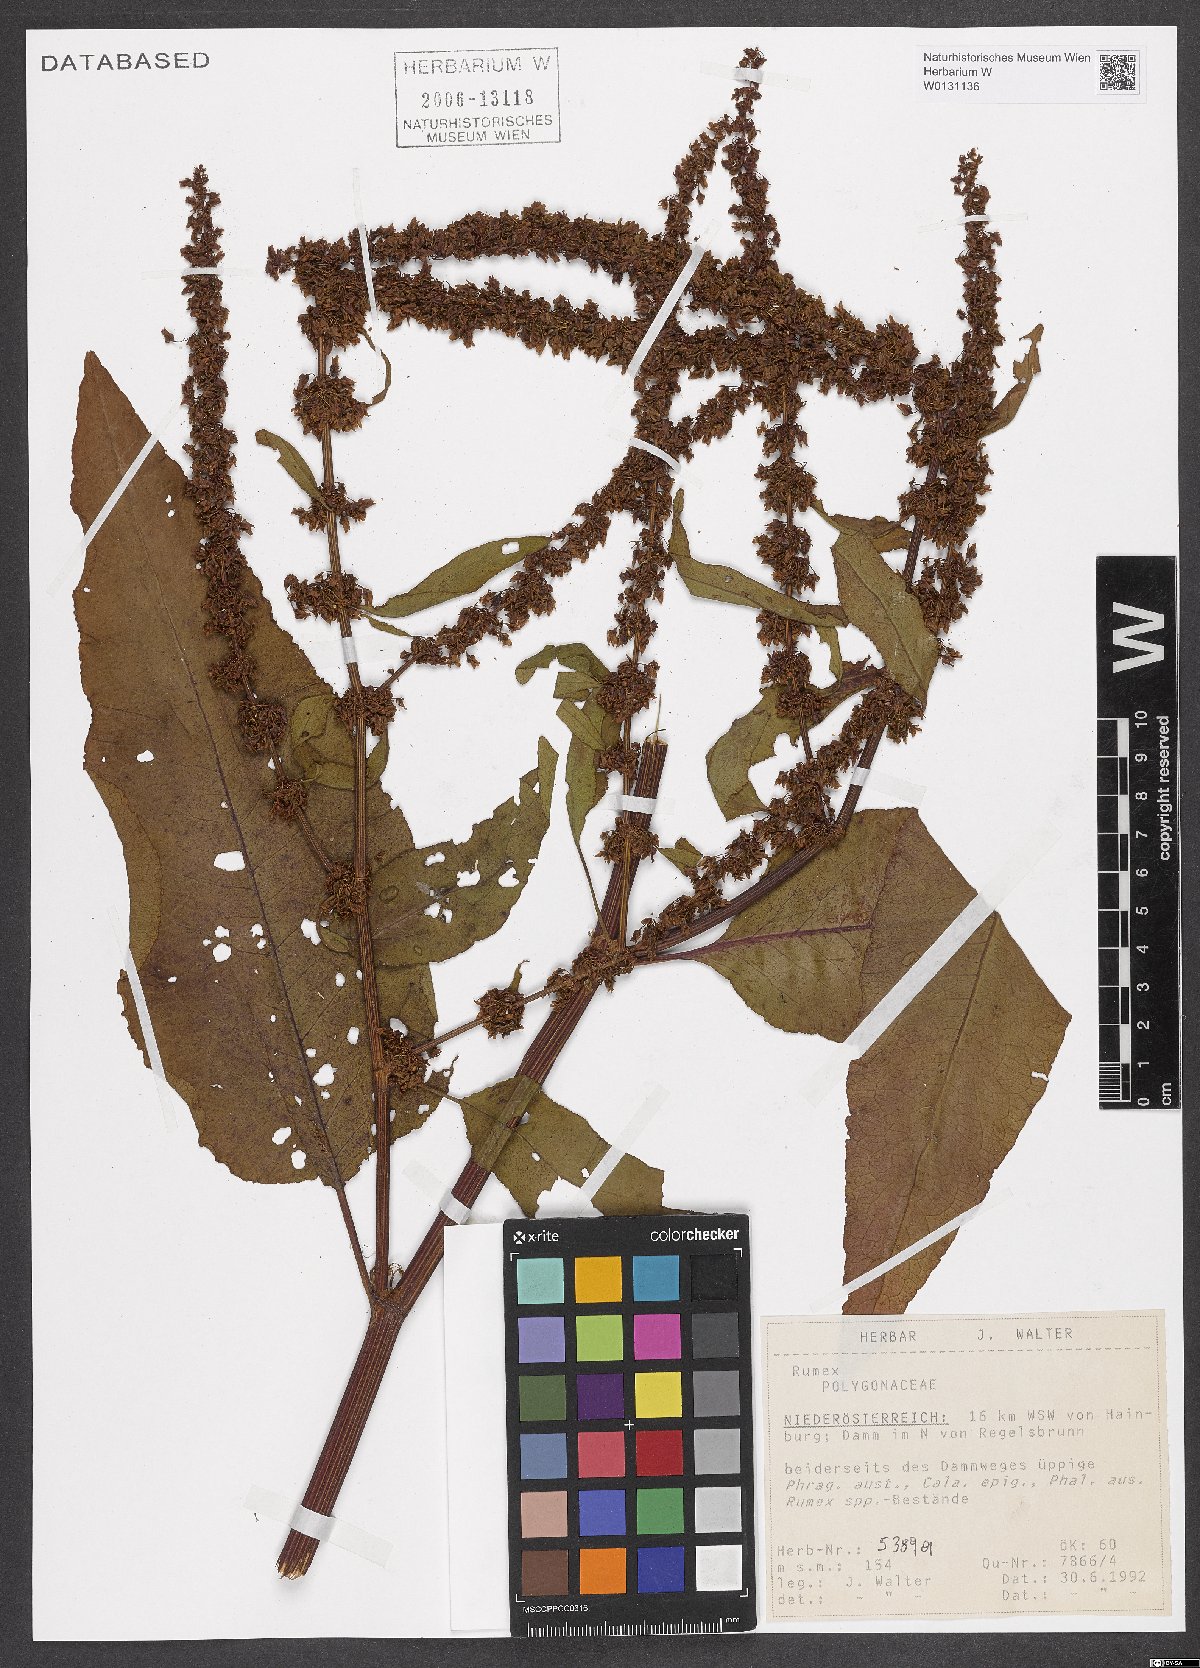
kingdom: Plantae
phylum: Tracheophyta
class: Magnoliopsida
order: Caryophyllales
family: Polygonaceae
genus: Rumex
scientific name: Rumex
